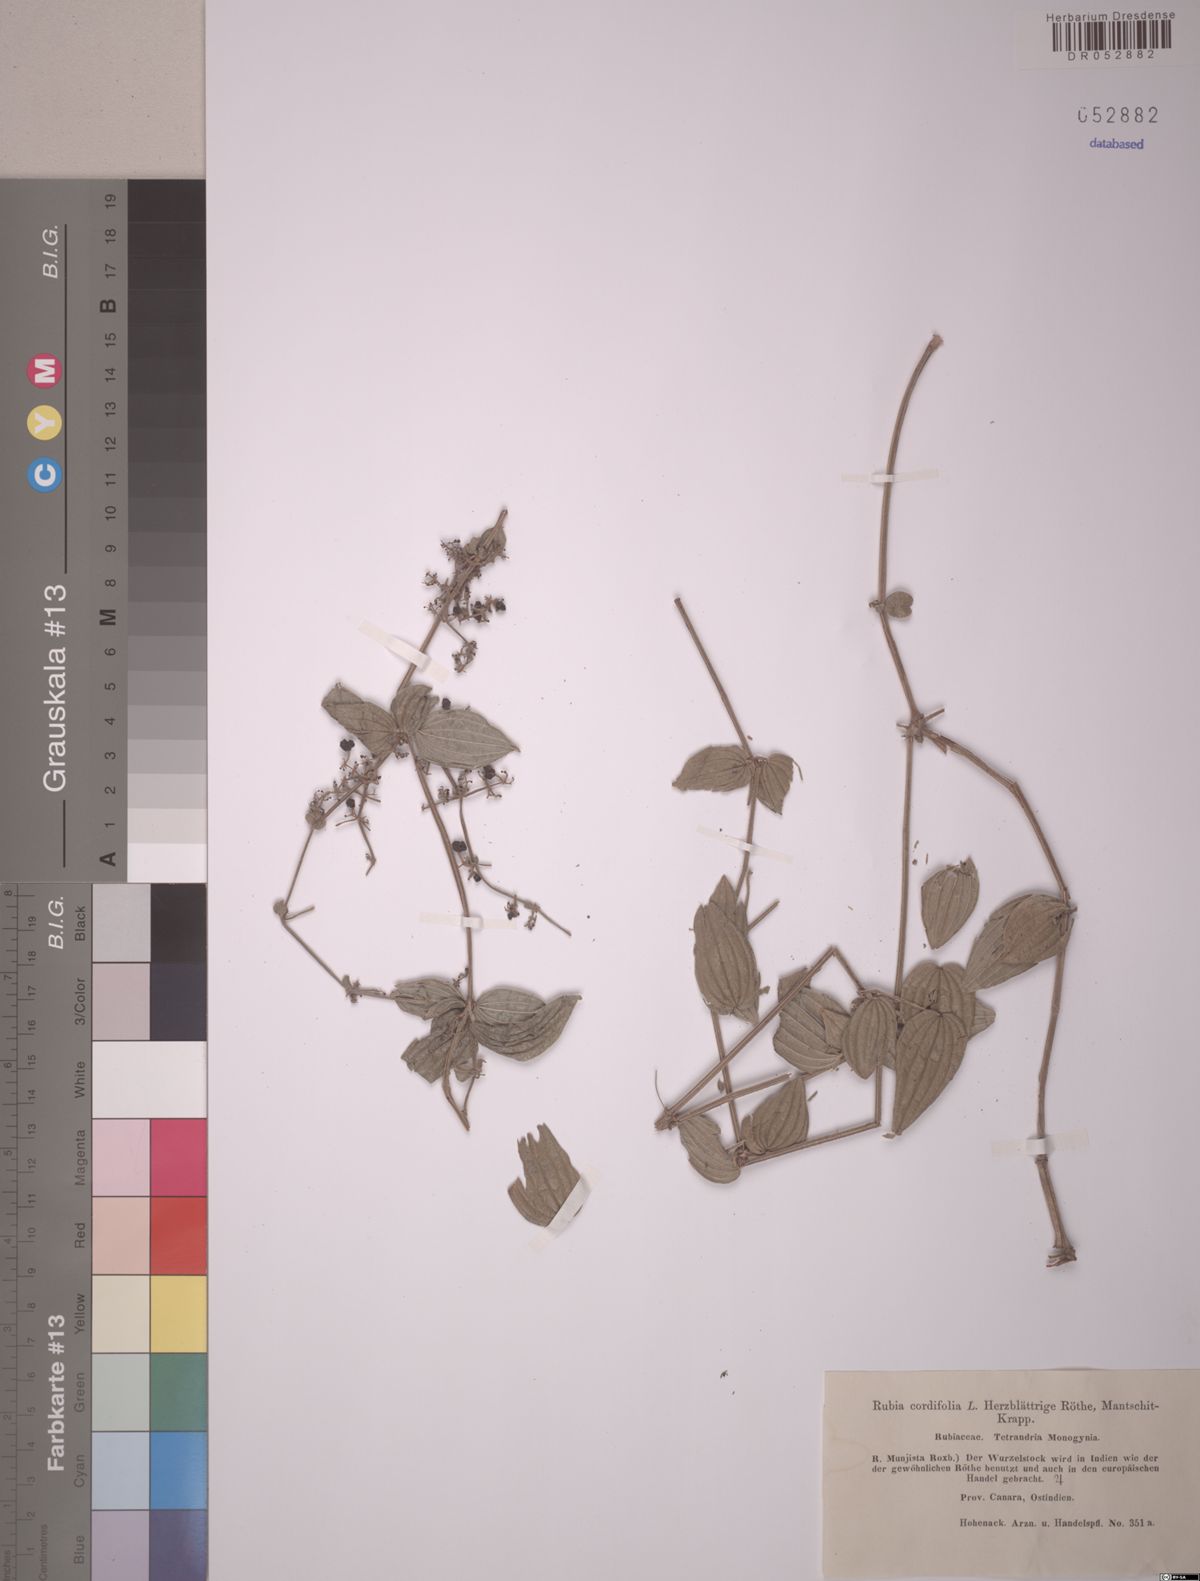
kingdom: Plantae
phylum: Tracheophyta
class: Magnoliopsida
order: Gentianales
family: Rubiaceae
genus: Rubia
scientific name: Rubia cordifolia
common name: Indian madder
